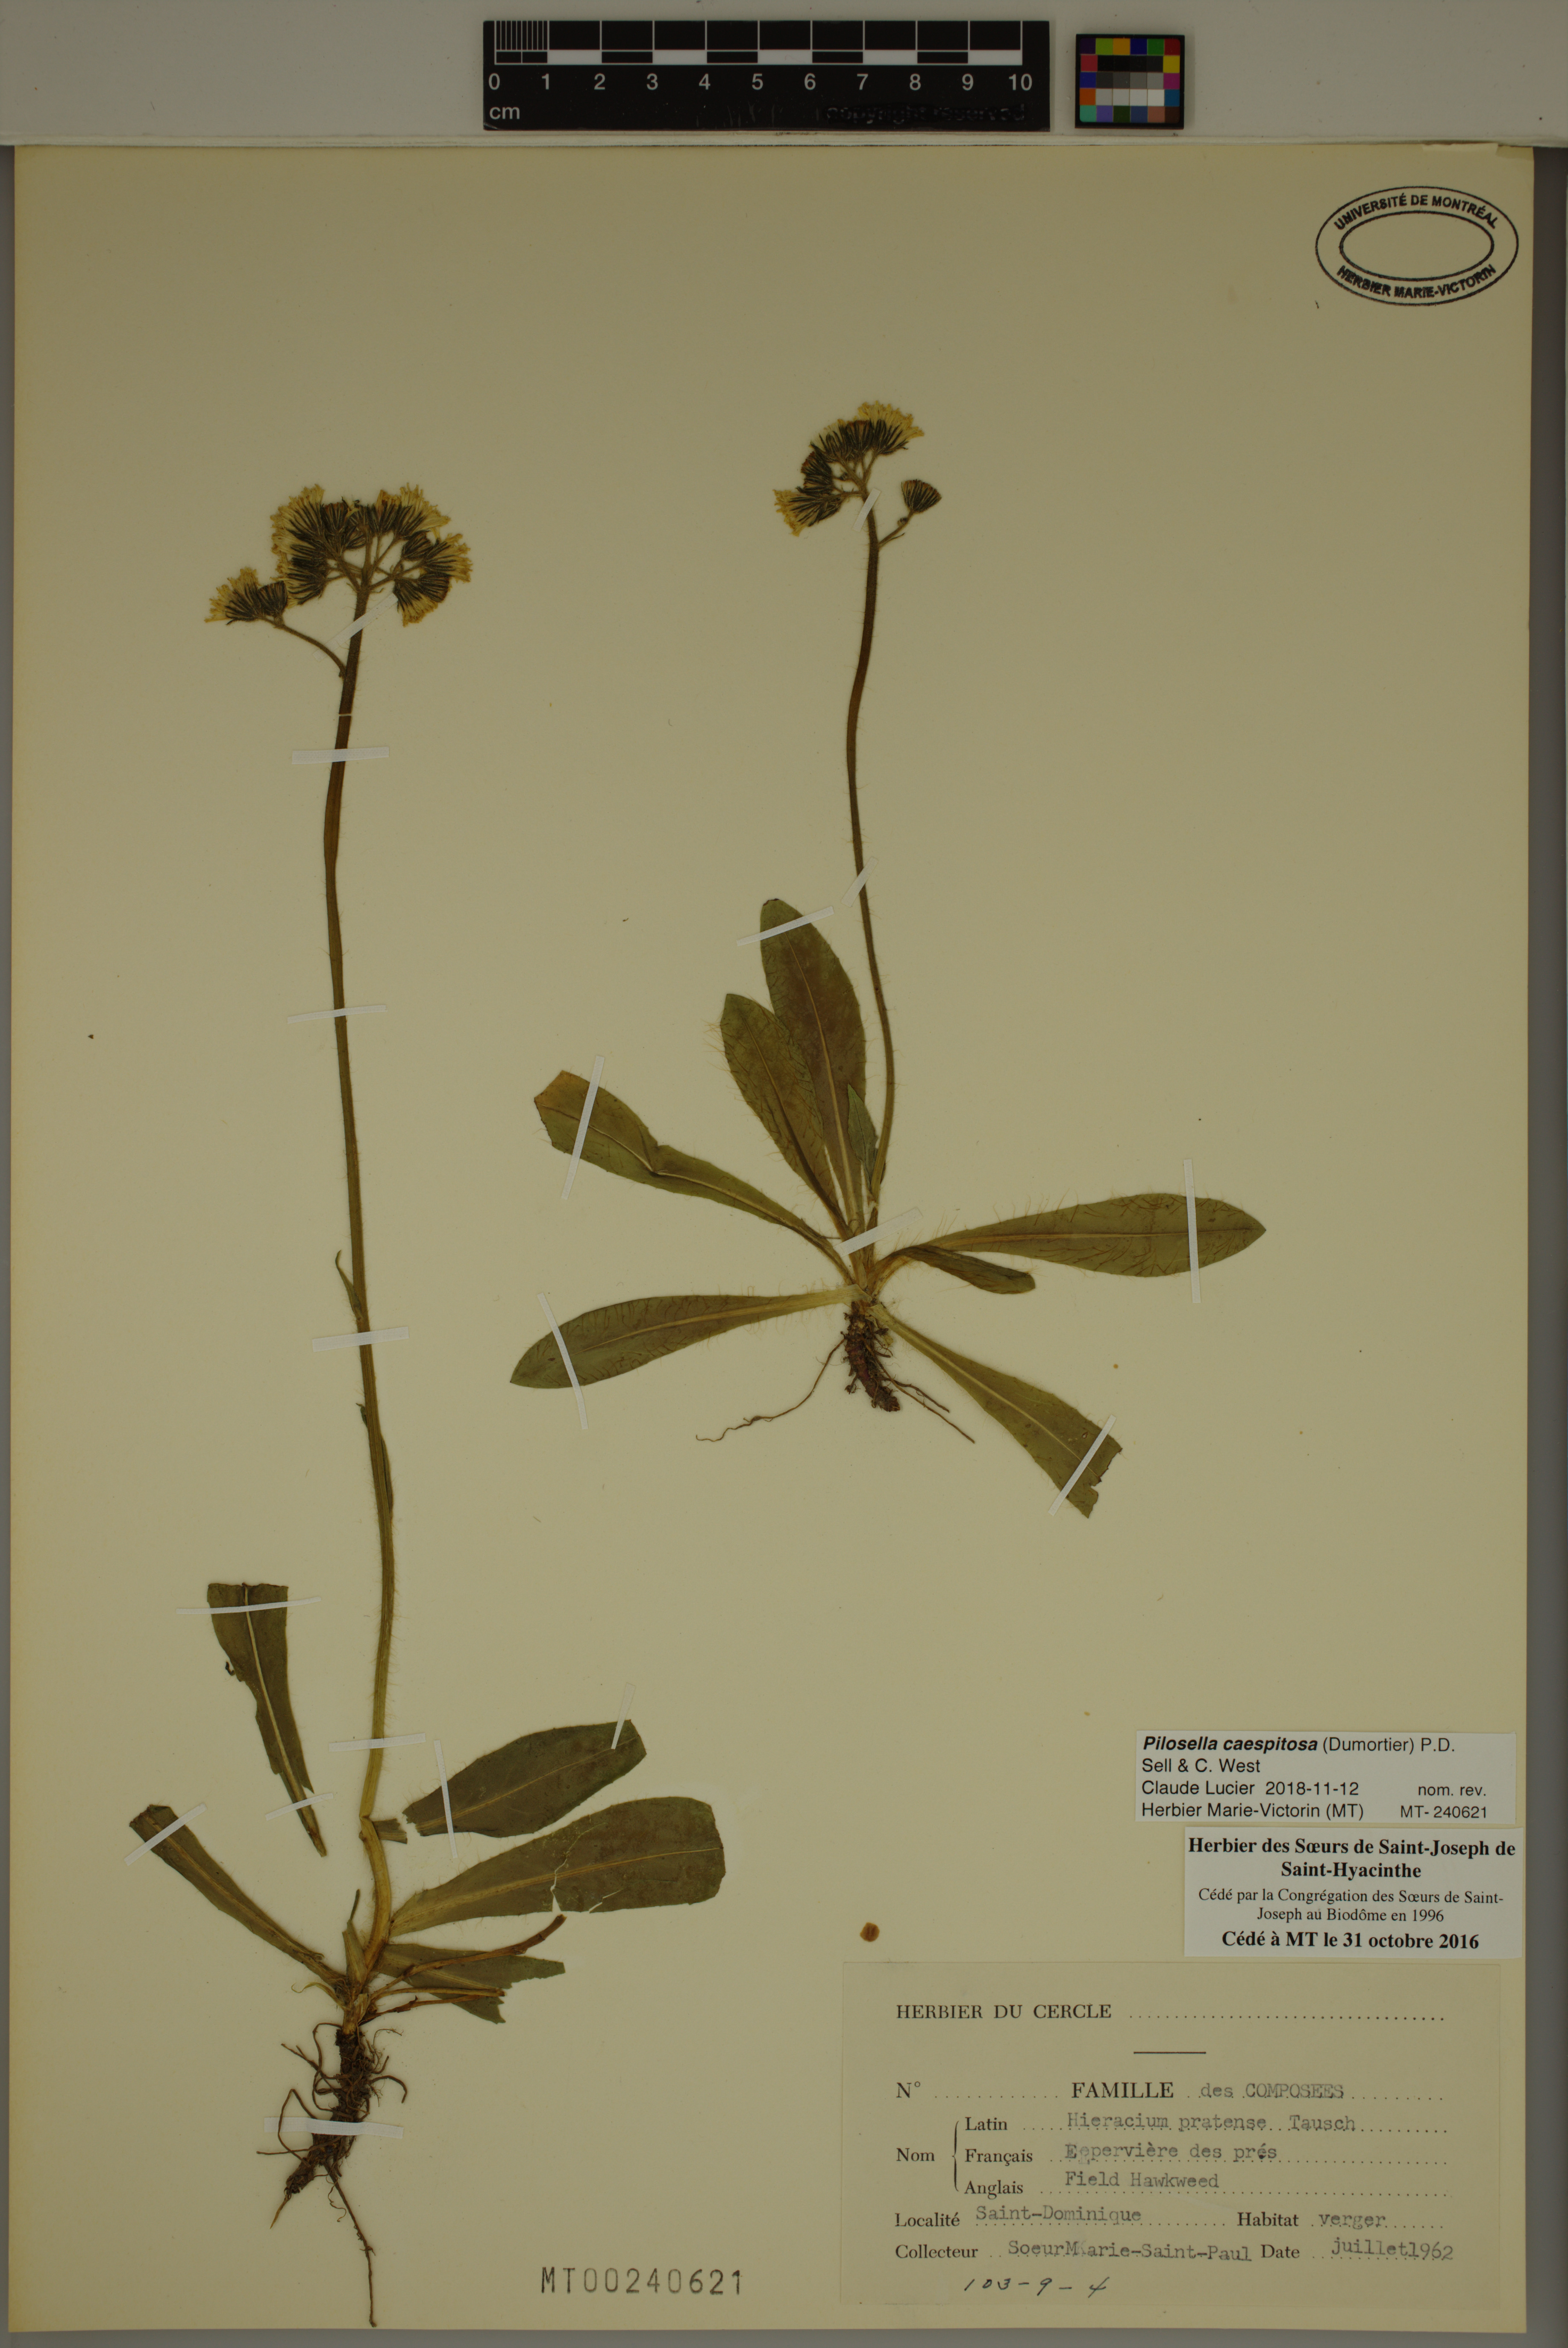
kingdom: Plantae
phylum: Tracheophyta
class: Magnoliopsida
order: Asterales
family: Asteraceae
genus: Pilosella
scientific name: Pilosella caespitosa
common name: Yellow fox-and-cubs
